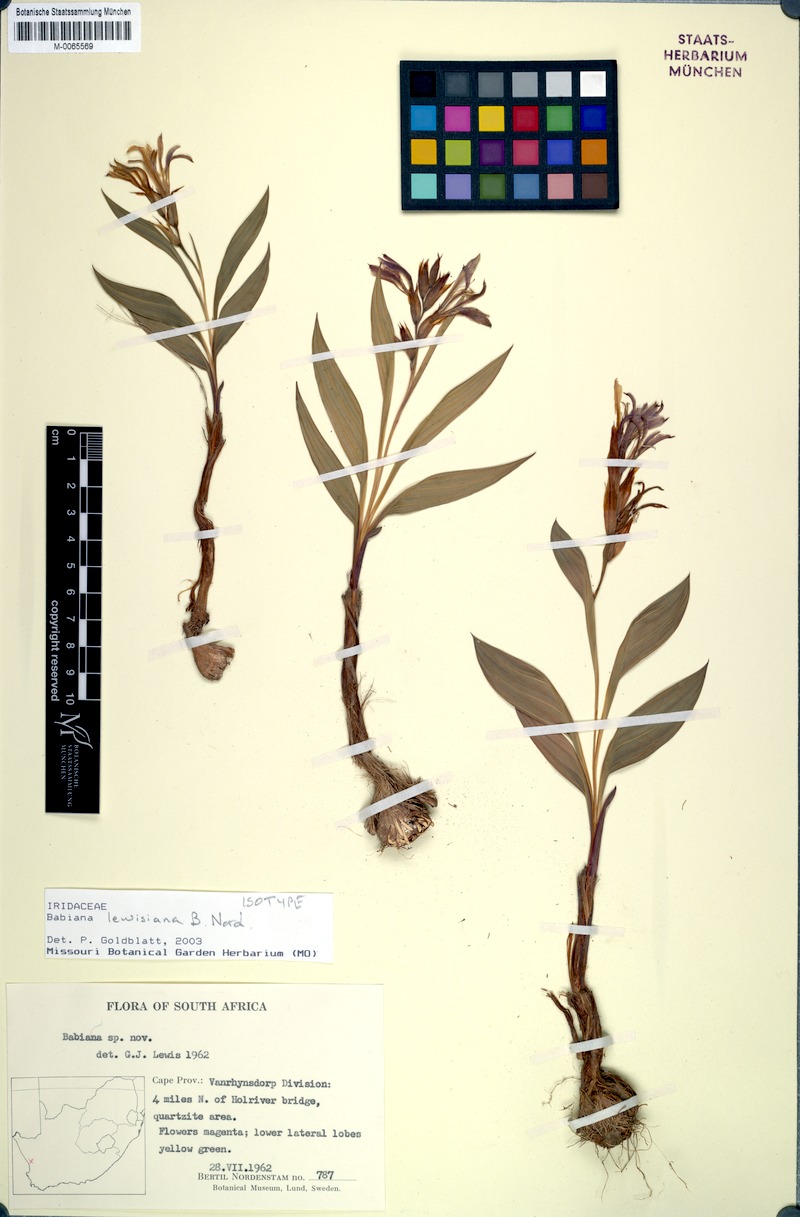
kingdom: Plantae
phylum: Tracheophyta
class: Liliopsida
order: Asparagales
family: Iridaceae
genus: Babiana
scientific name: Babiana lewisiana
